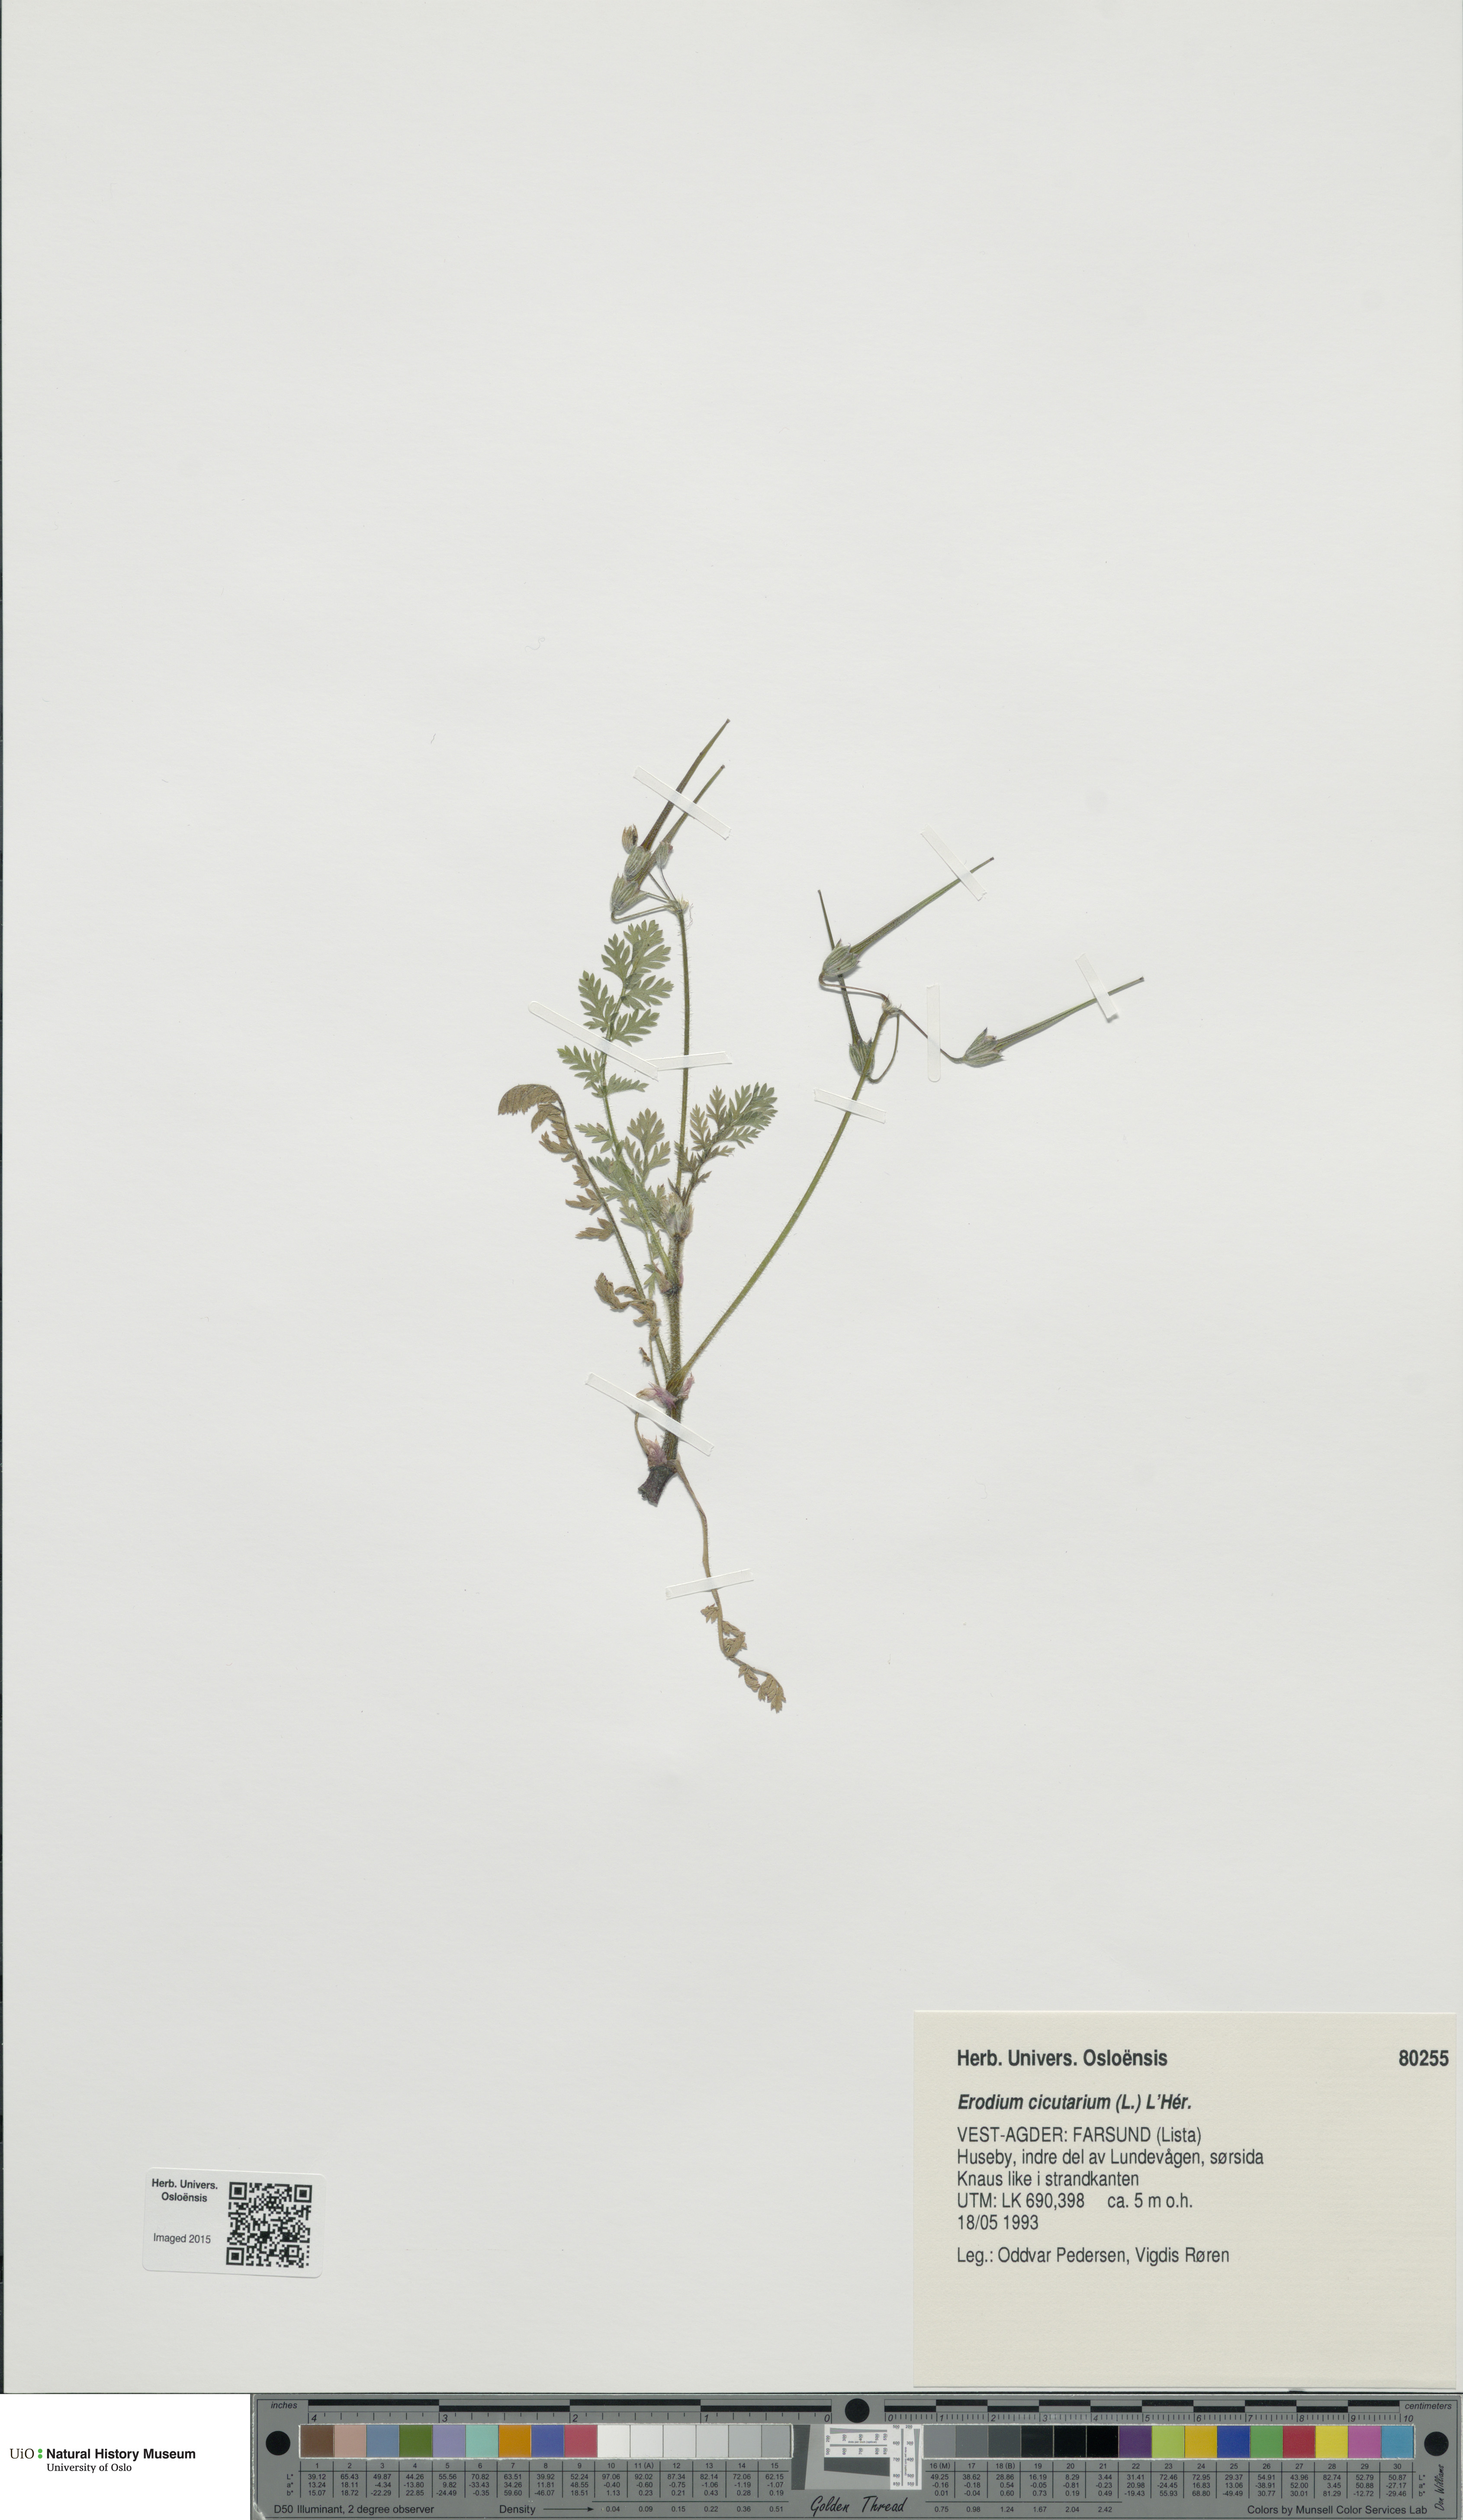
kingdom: Plantae
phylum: Tracheophyta
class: Magnoliopsida
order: Geraniales
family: Geraniaceae
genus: Erodium
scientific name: Erodium cicutarium
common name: Common stork's-bill
